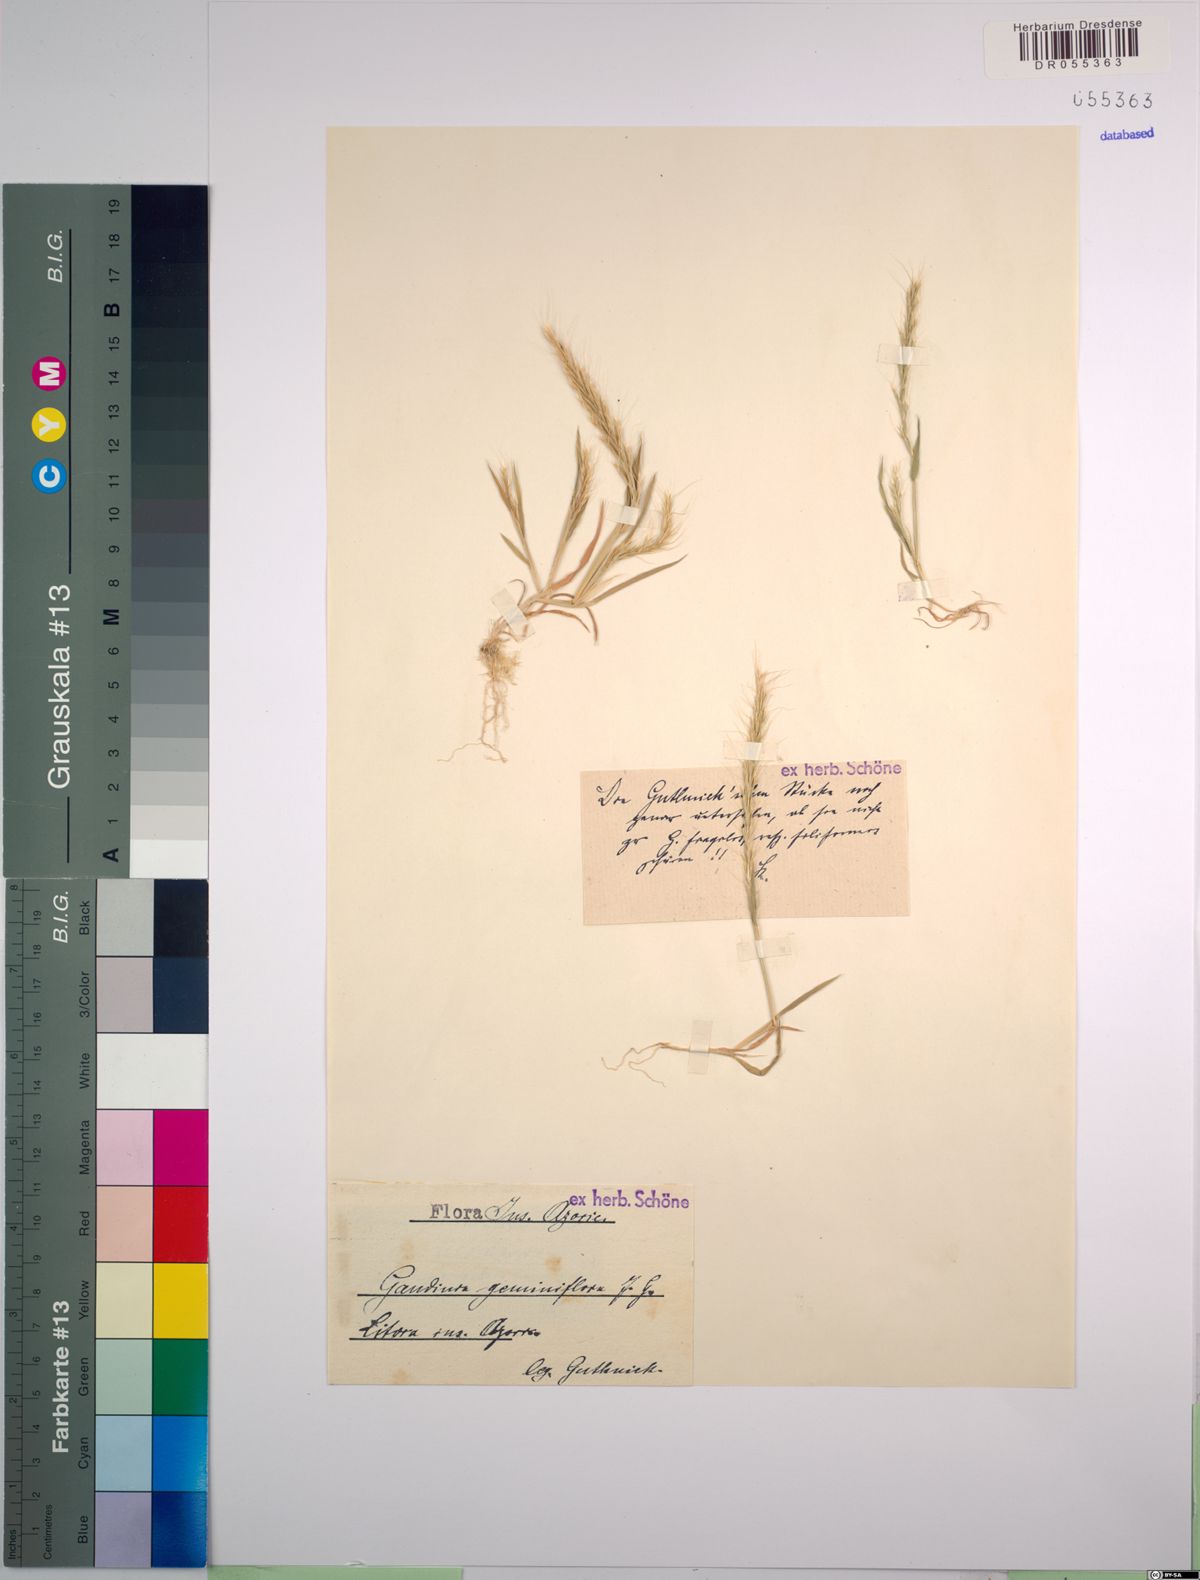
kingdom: Plantae
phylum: Tracheophyta
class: Liliopsida
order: Poales
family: Poaceae
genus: Gaudinia
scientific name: Gaudinia coarctata
